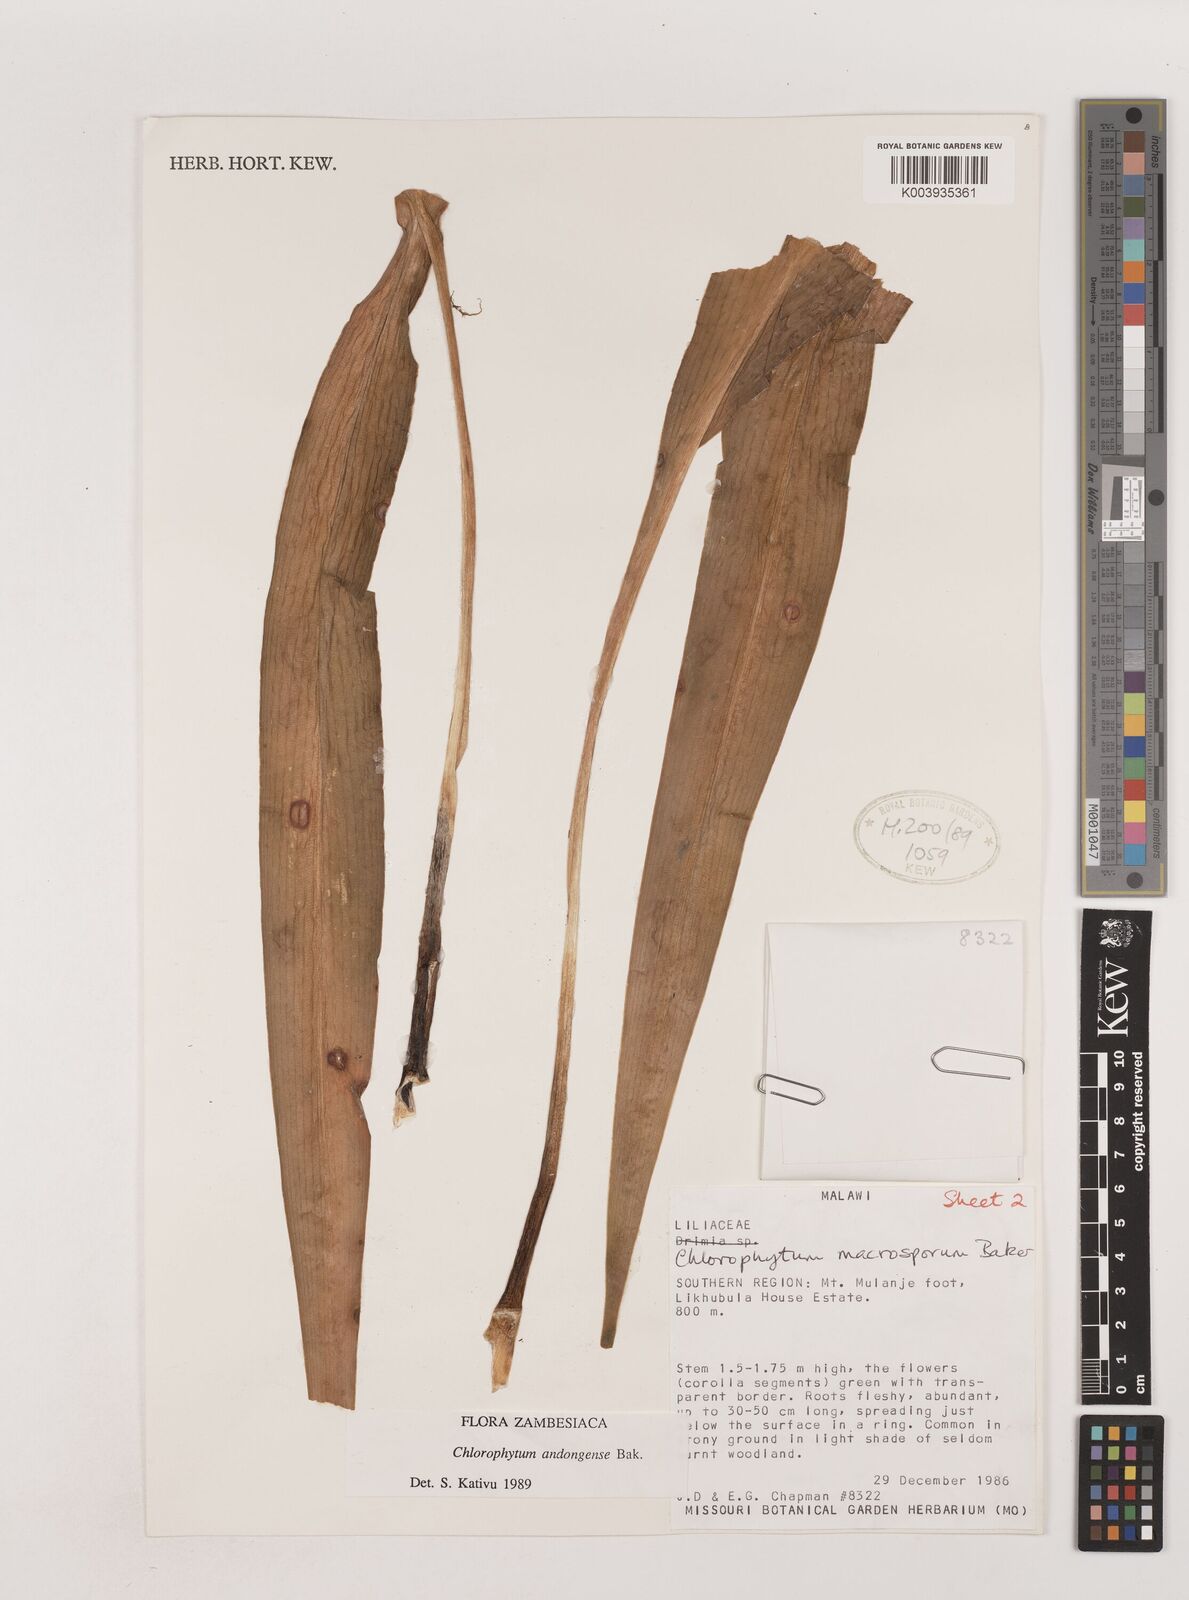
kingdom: Plantae
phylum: Tracheophyta
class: Liliopsida
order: Asparagales
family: Asparagaceae
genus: Chlorophytum
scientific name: Chlorophytum macrosporum
